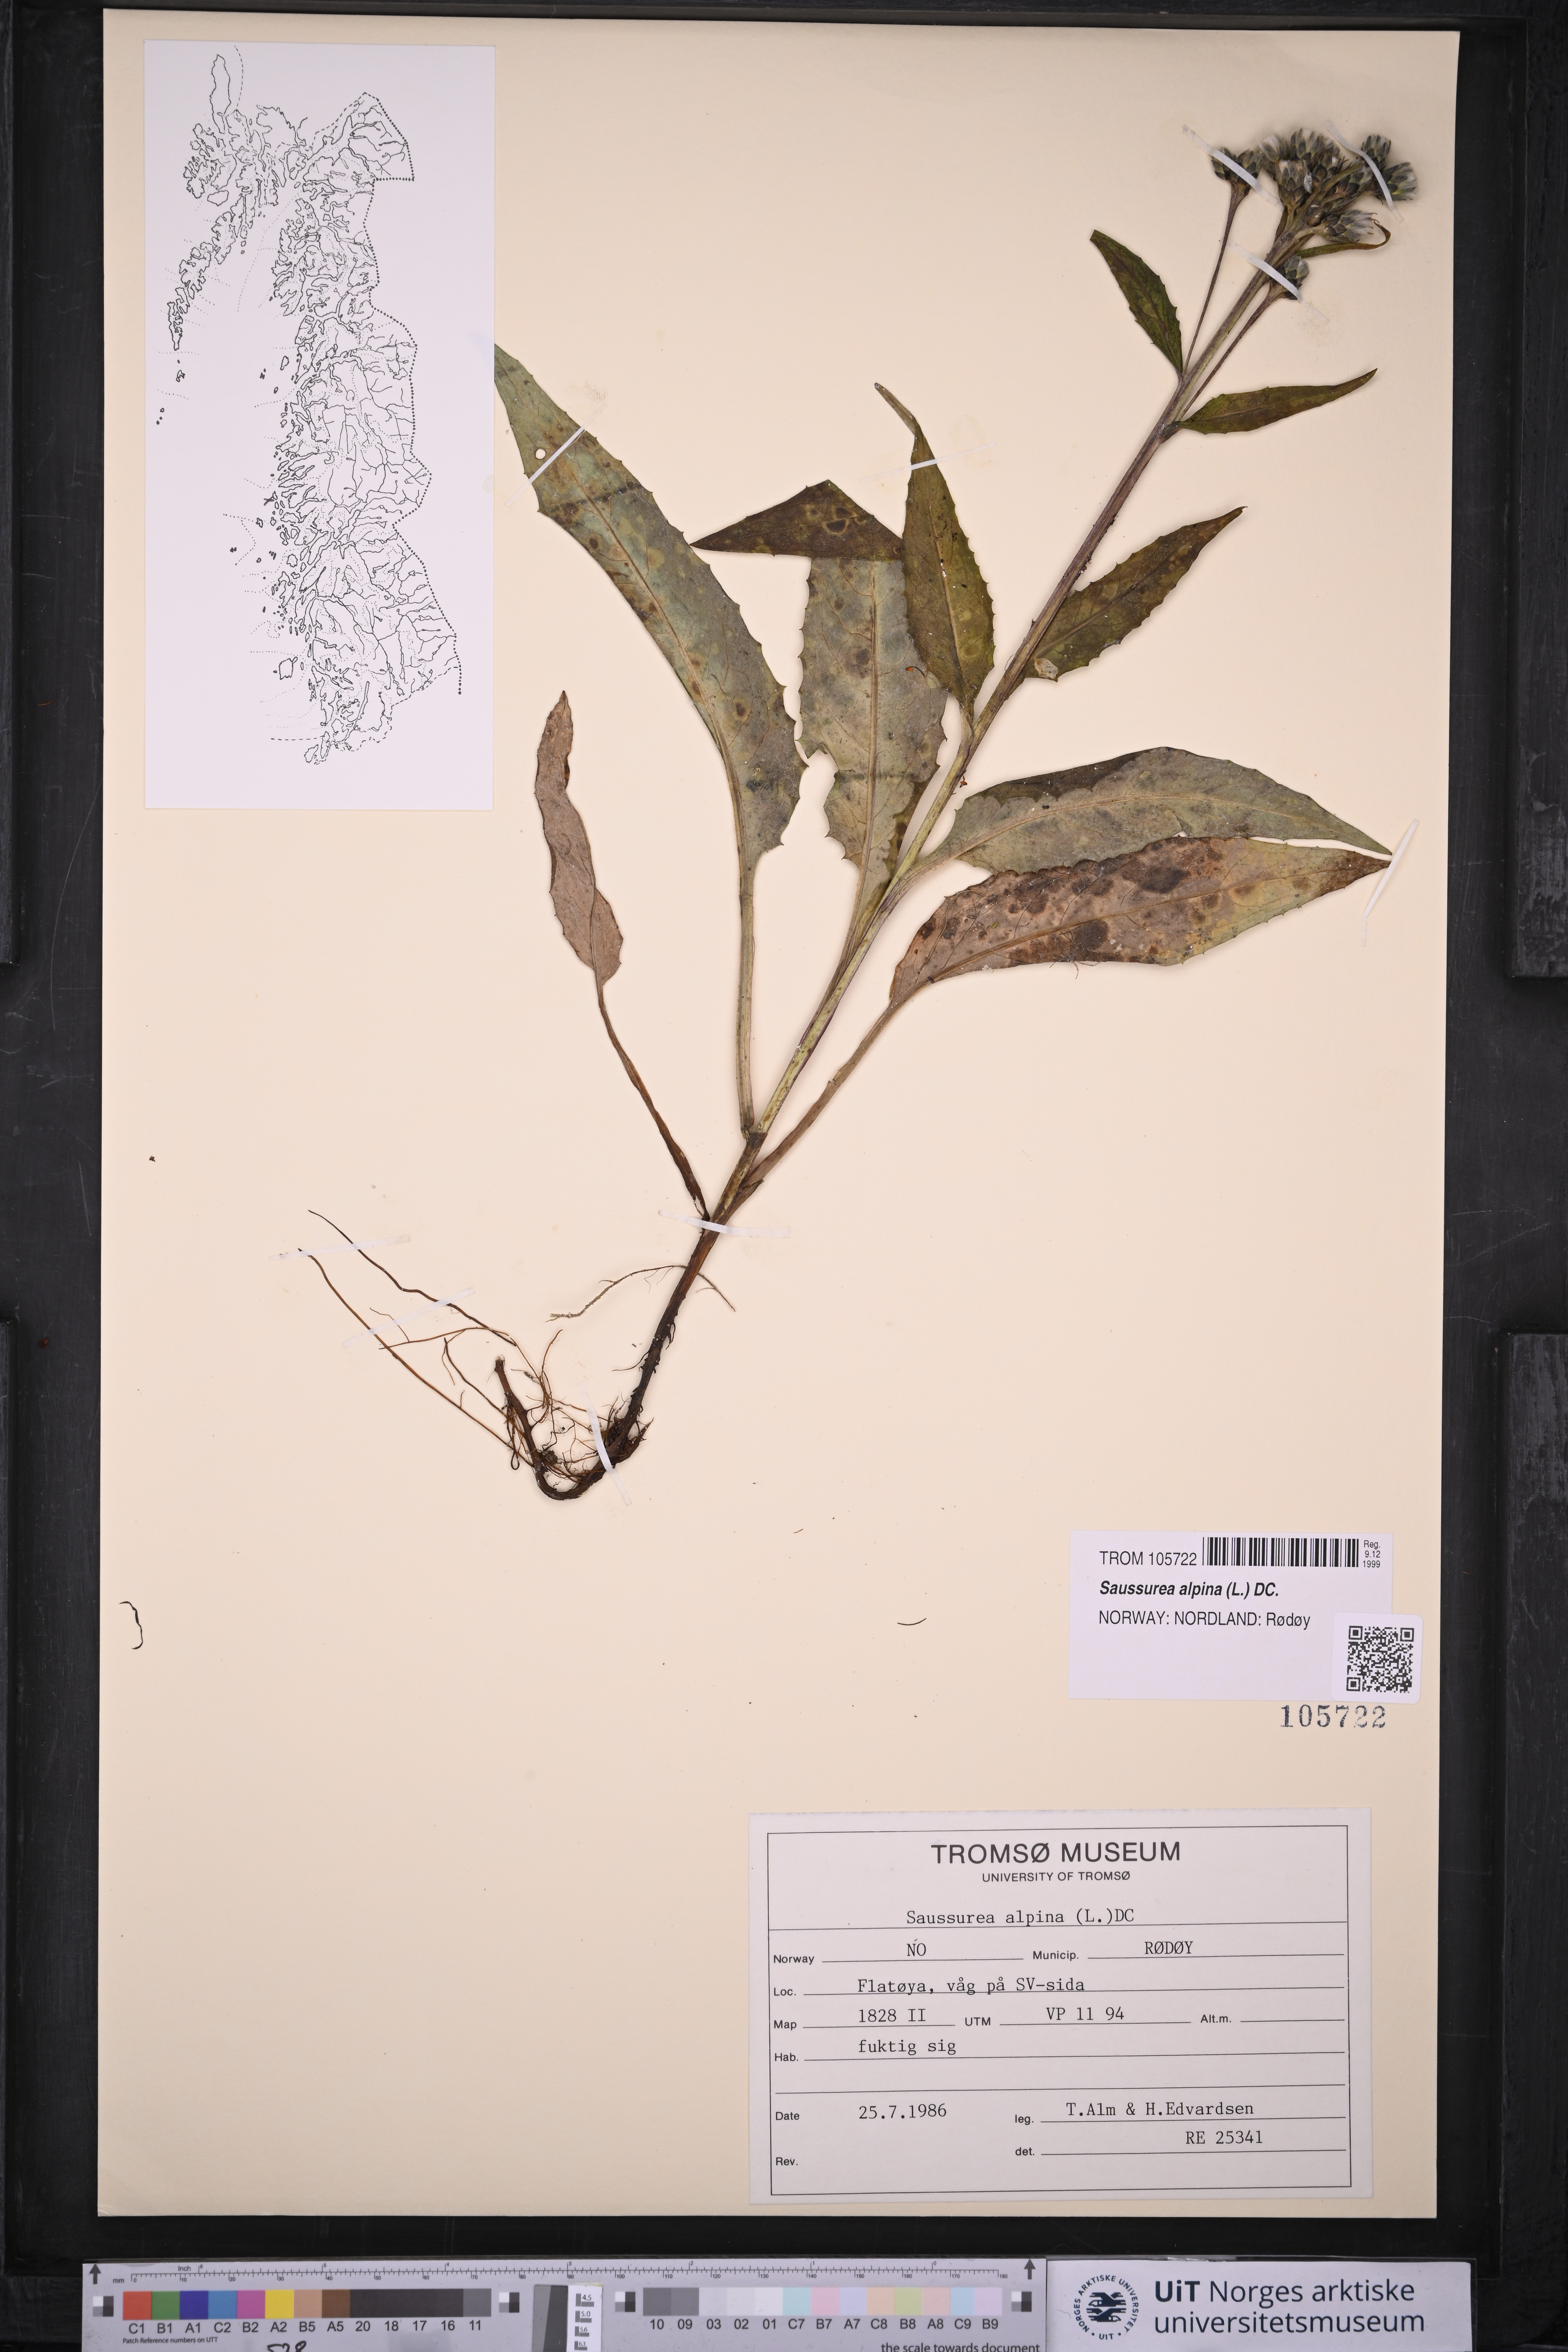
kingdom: Plantae
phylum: Tracheophyta
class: Magnoliopsida
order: Asterales
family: Asteraceae
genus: Saussurea
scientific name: Saussurea alpina
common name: Alpine saw-wort
